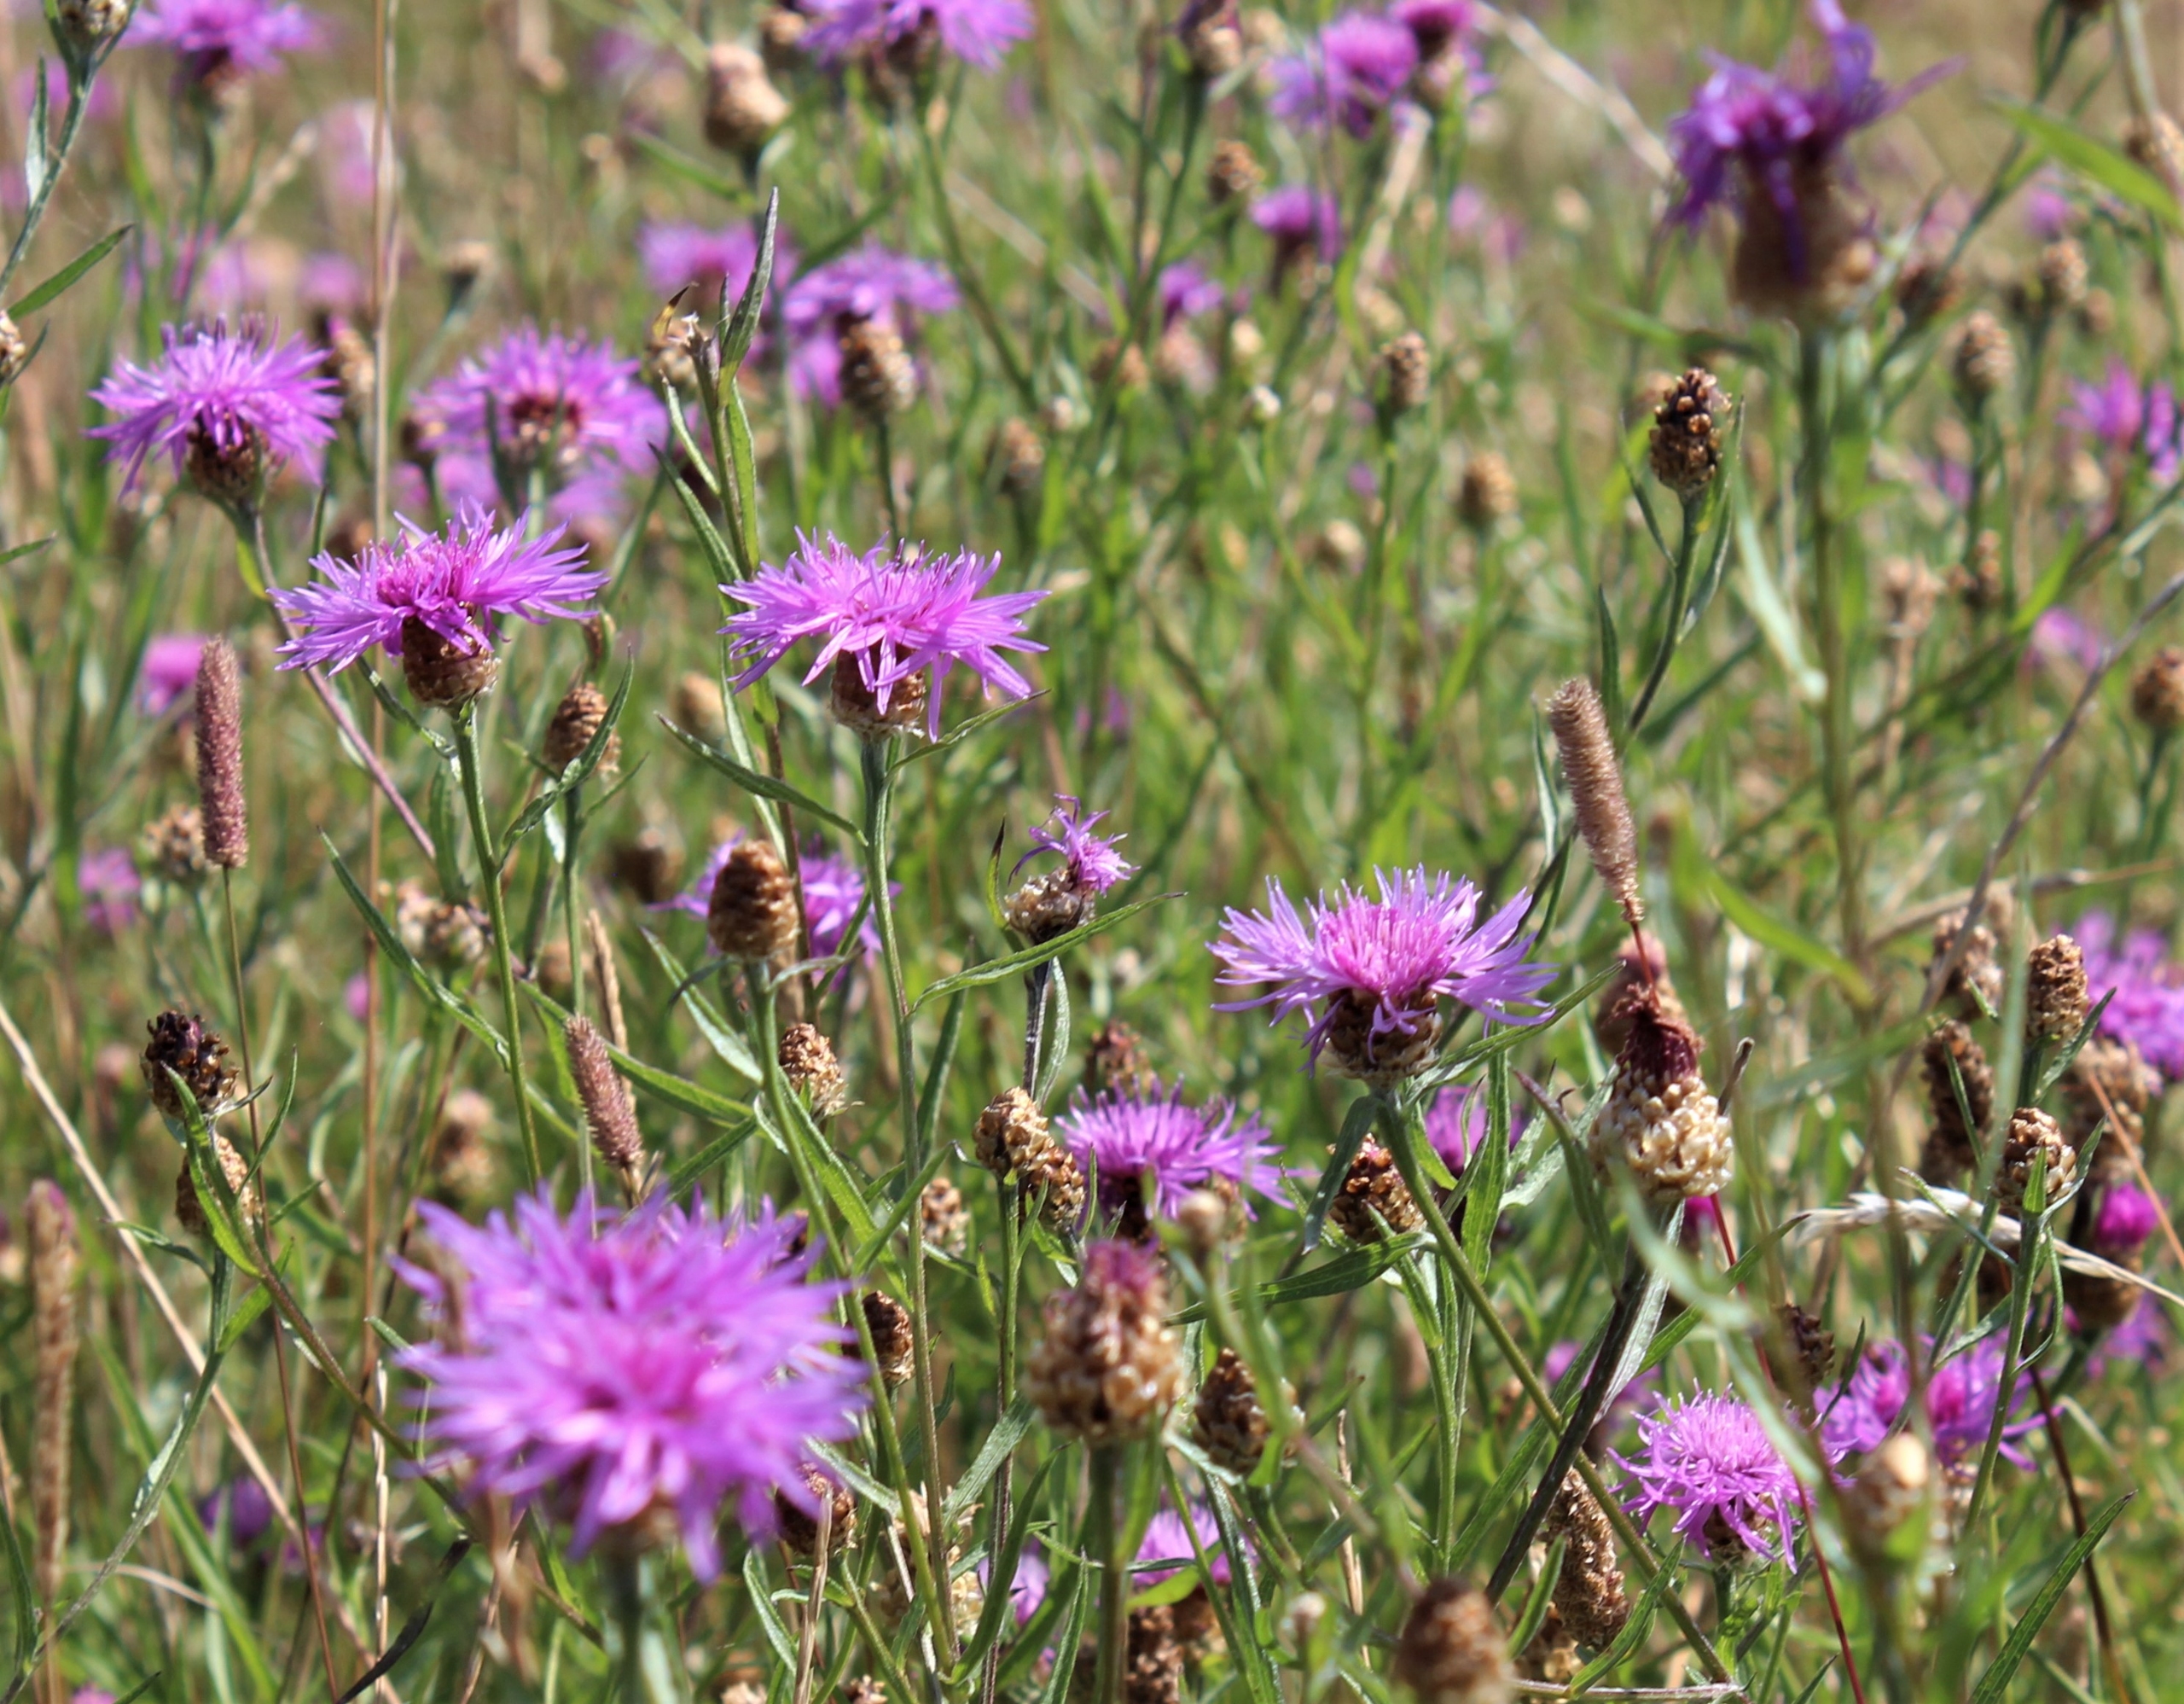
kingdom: Plantae
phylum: Tracheophyta
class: Magnoliopsida
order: Asterales
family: Asteraceae
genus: Centaurea
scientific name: Centaurea jacea
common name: Almindelig knopurt
